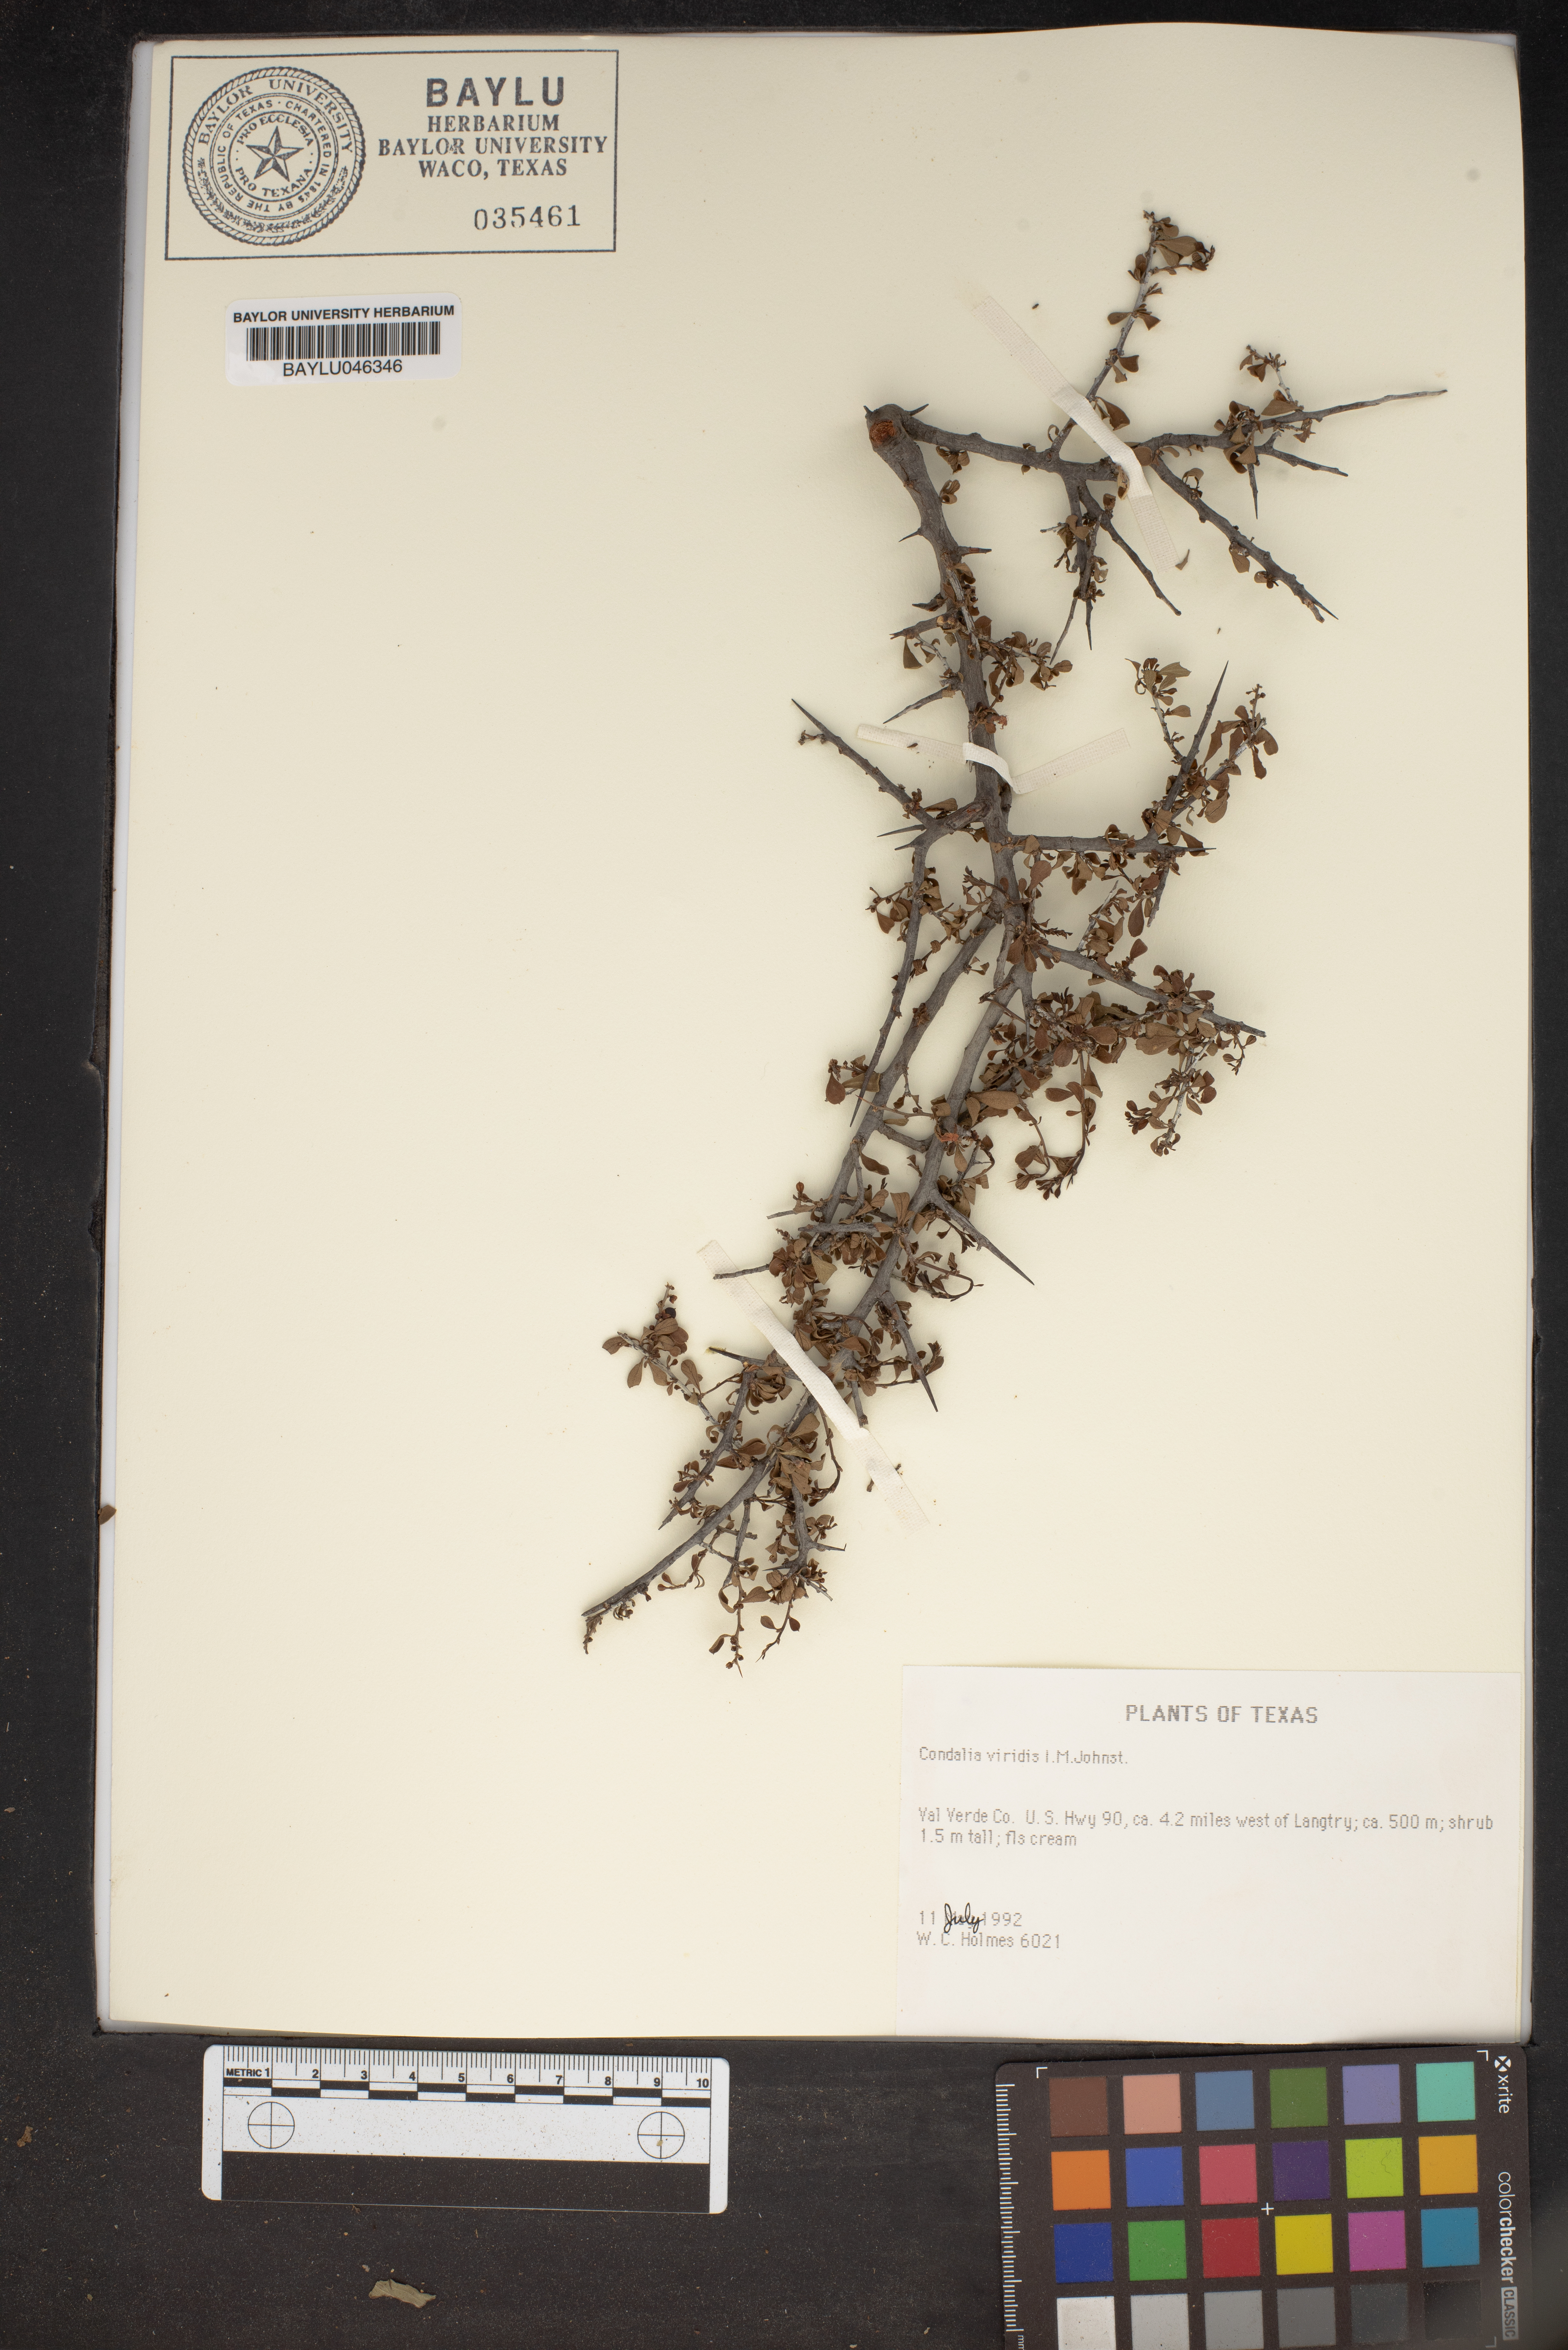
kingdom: Plantae
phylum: Tracheophyta
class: Magnoliopsida
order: Rosales
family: Rhamnaceae
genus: Condalia
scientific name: Condalia viridis
